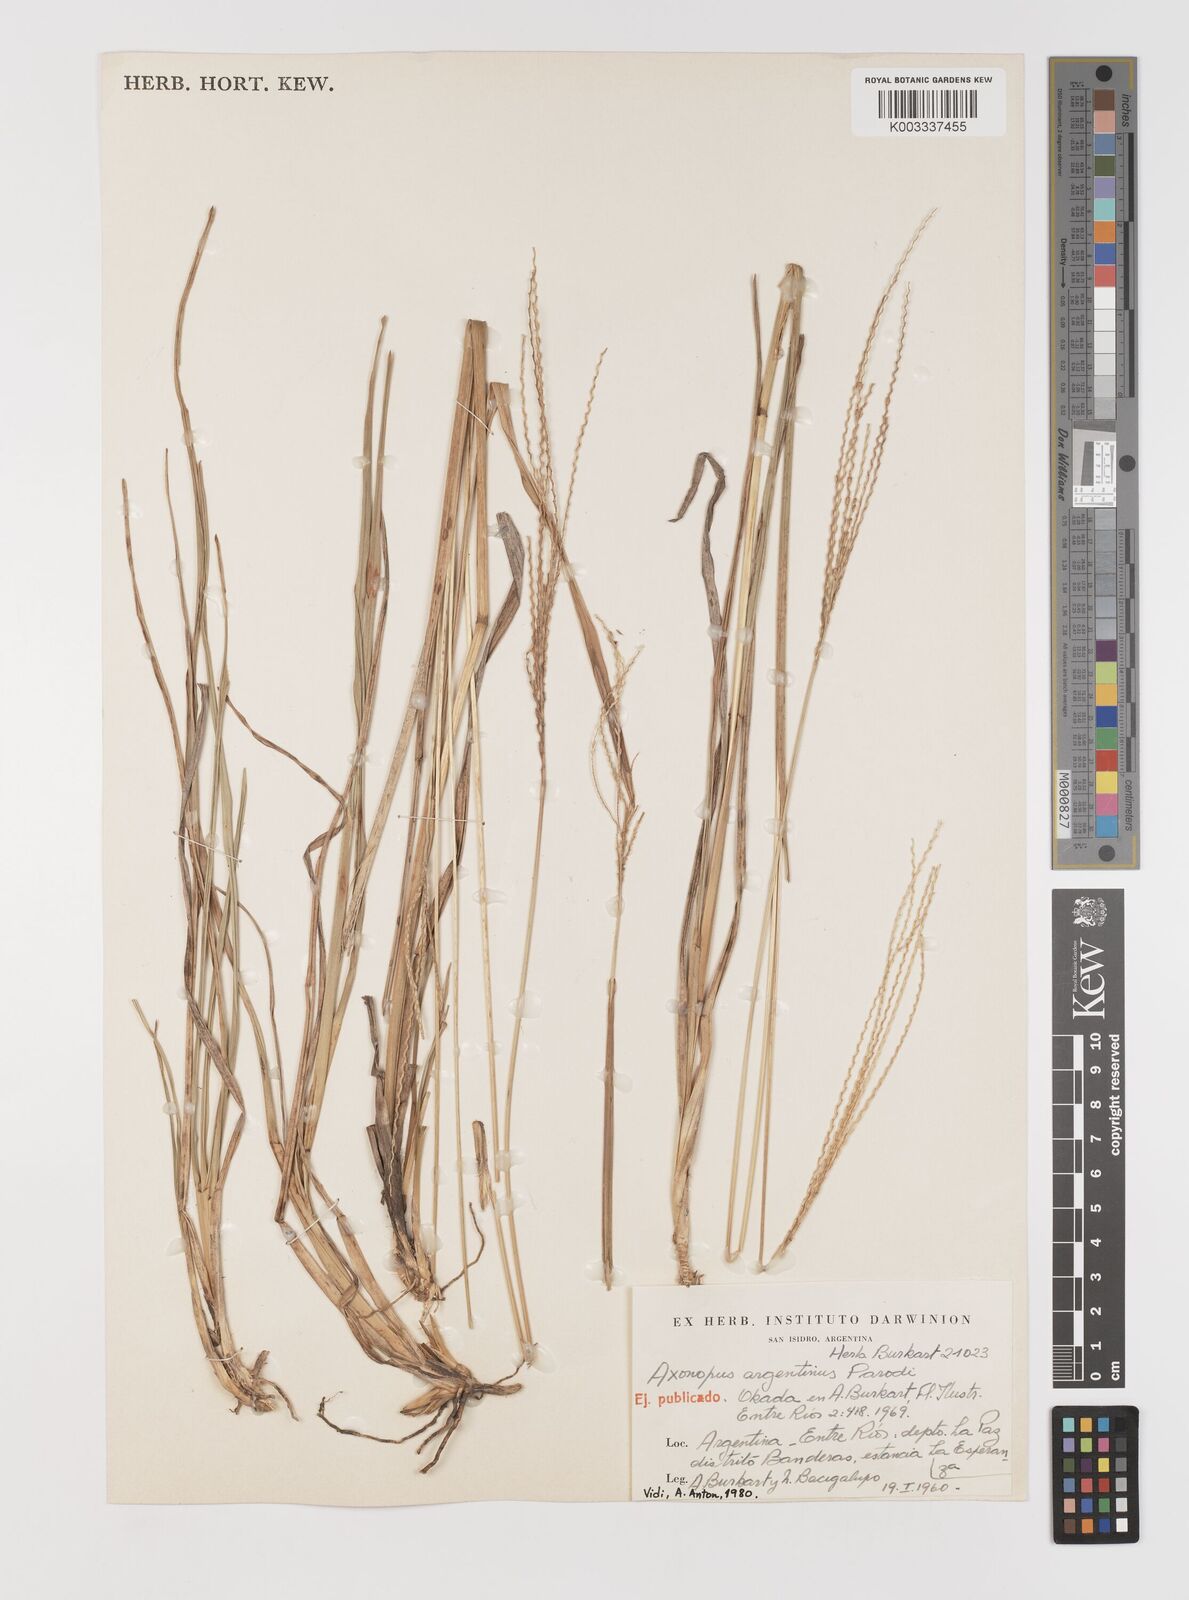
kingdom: Plantae
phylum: Tracheophyta
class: Liliopsida
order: Poales
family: Poaceae
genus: Axonopus
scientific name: Axonopus argentinus
